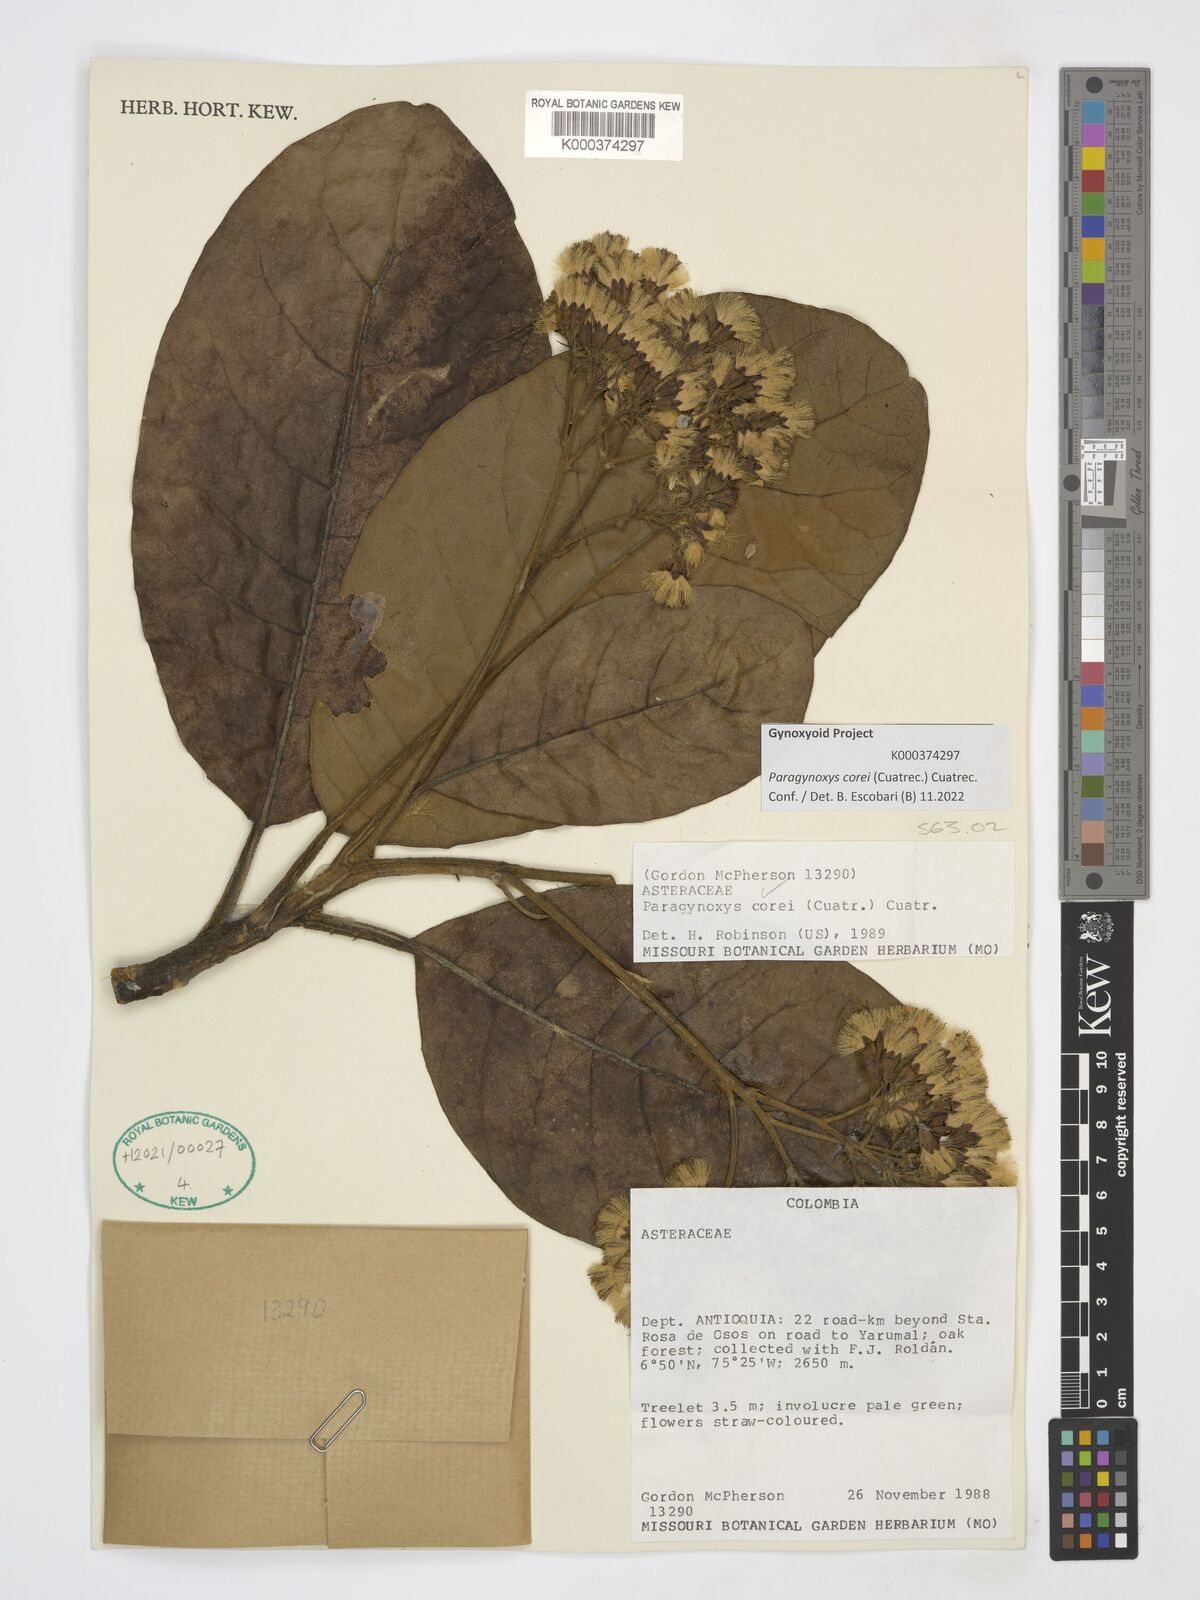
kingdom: Plantae
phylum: Tracheophyta
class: Magnoliopsida
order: Asterales
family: Asteraceae
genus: Paragynoxys
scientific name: Paragynoxys corei
